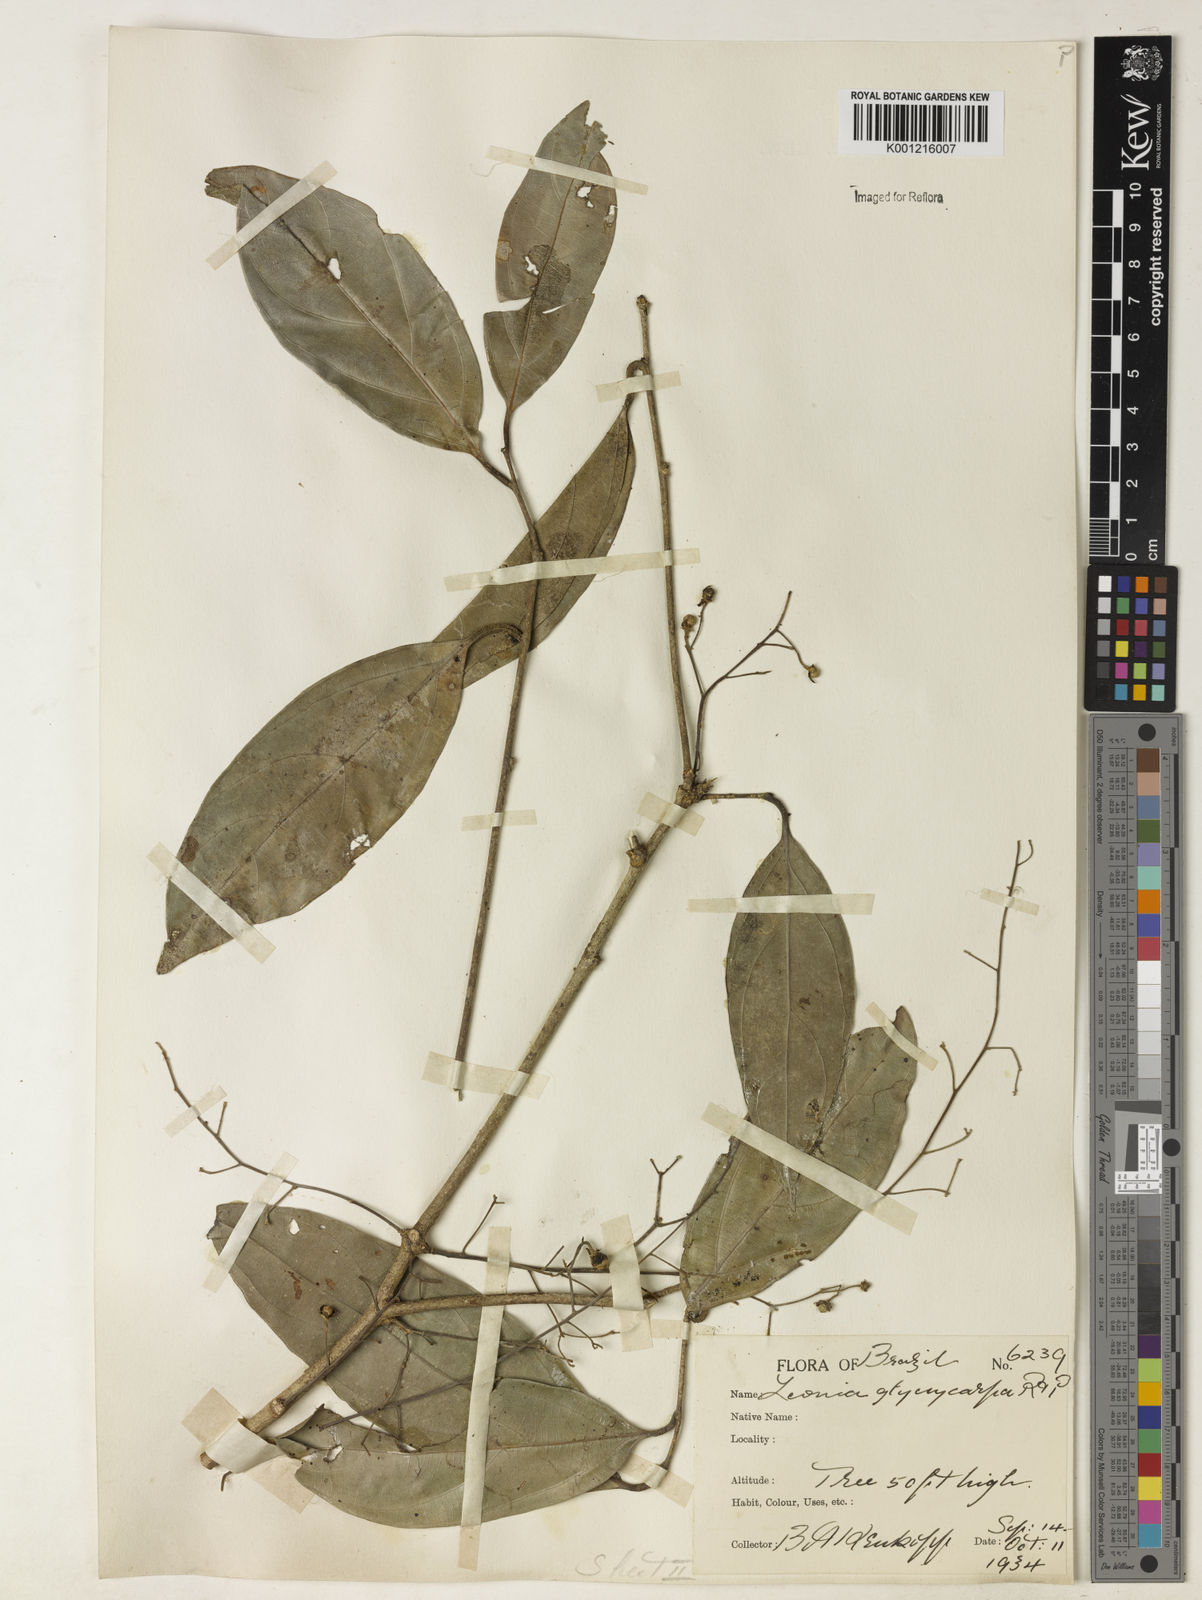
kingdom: Plantae
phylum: Tracheophyta
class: Magnoliopsida
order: Malpighiales
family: Violaceae
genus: Leonia
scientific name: Leonia glycycarpa
